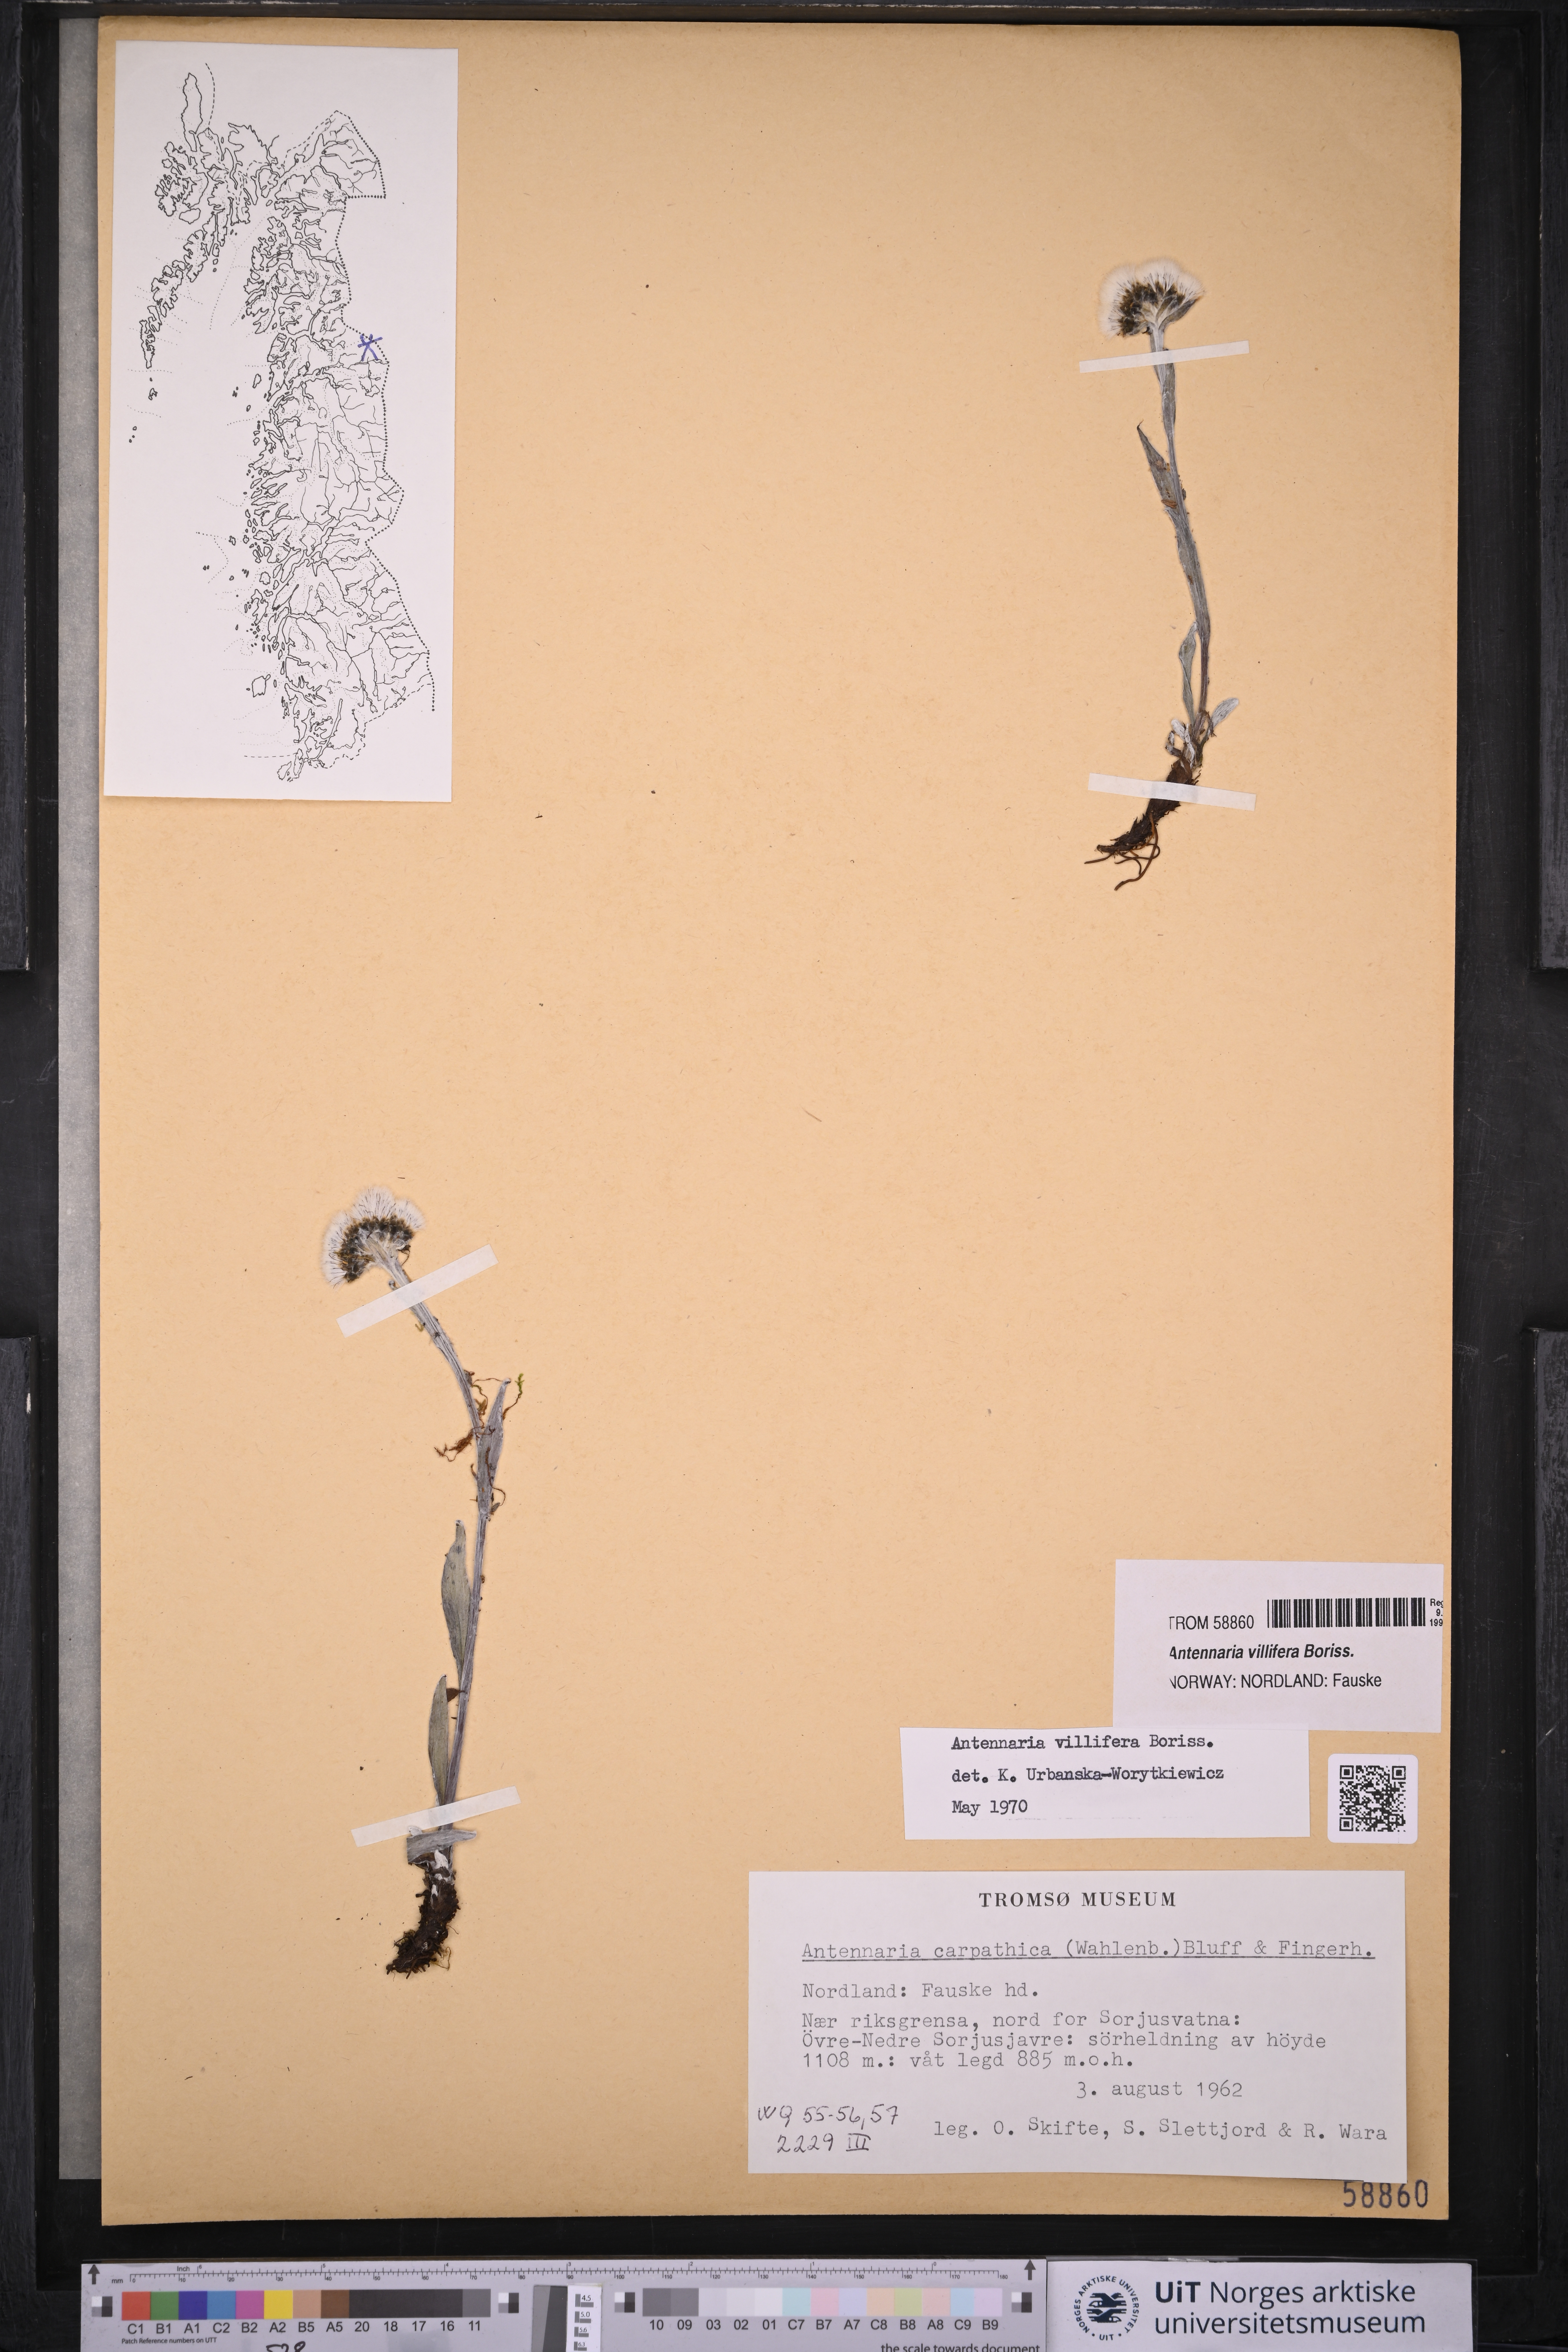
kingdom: Plantae
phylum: Tracheophyta
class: Magnoliopsida
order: Asterales
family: Asteraceae
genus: Antennaria
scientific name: Antennaria lanata
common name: Woolly pussytoes
